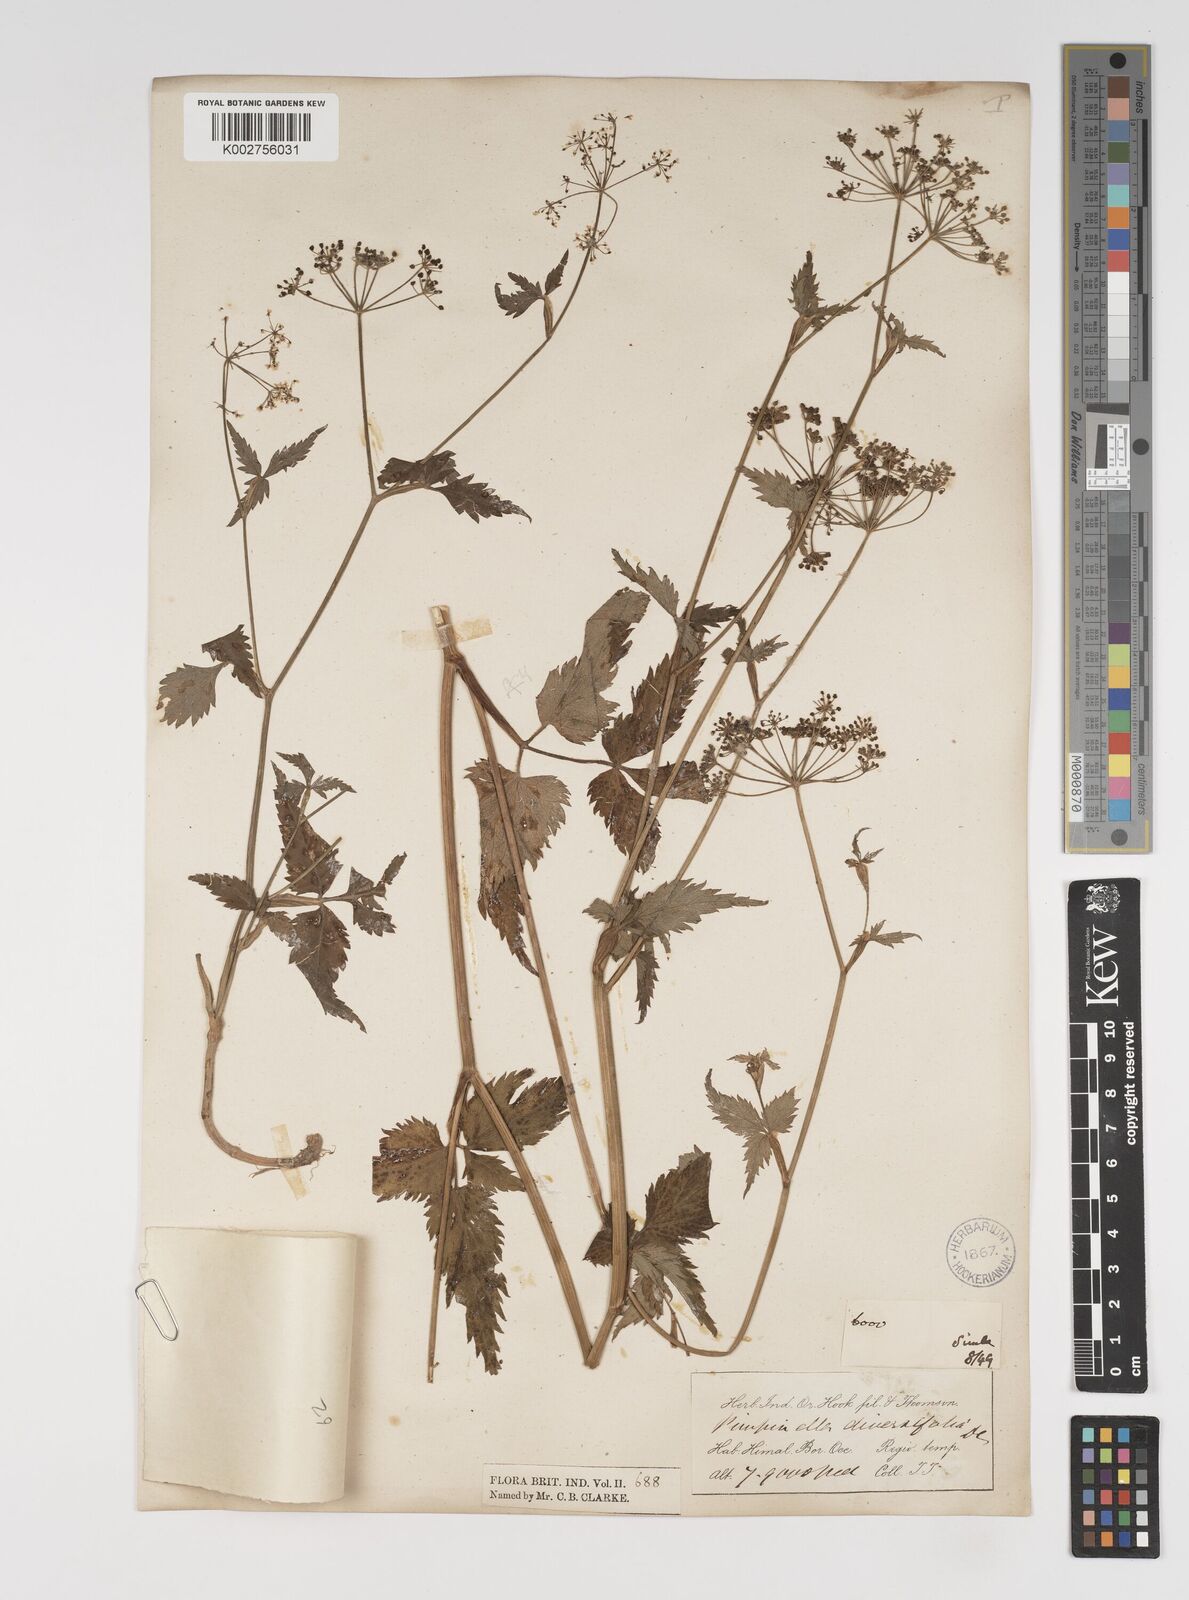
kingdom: Plantae
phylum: Tracheophyta
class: Magnoliopsida
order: Apiales
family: Apiaceae
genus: Pimpinella
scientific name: Pimpinella diversifolia
